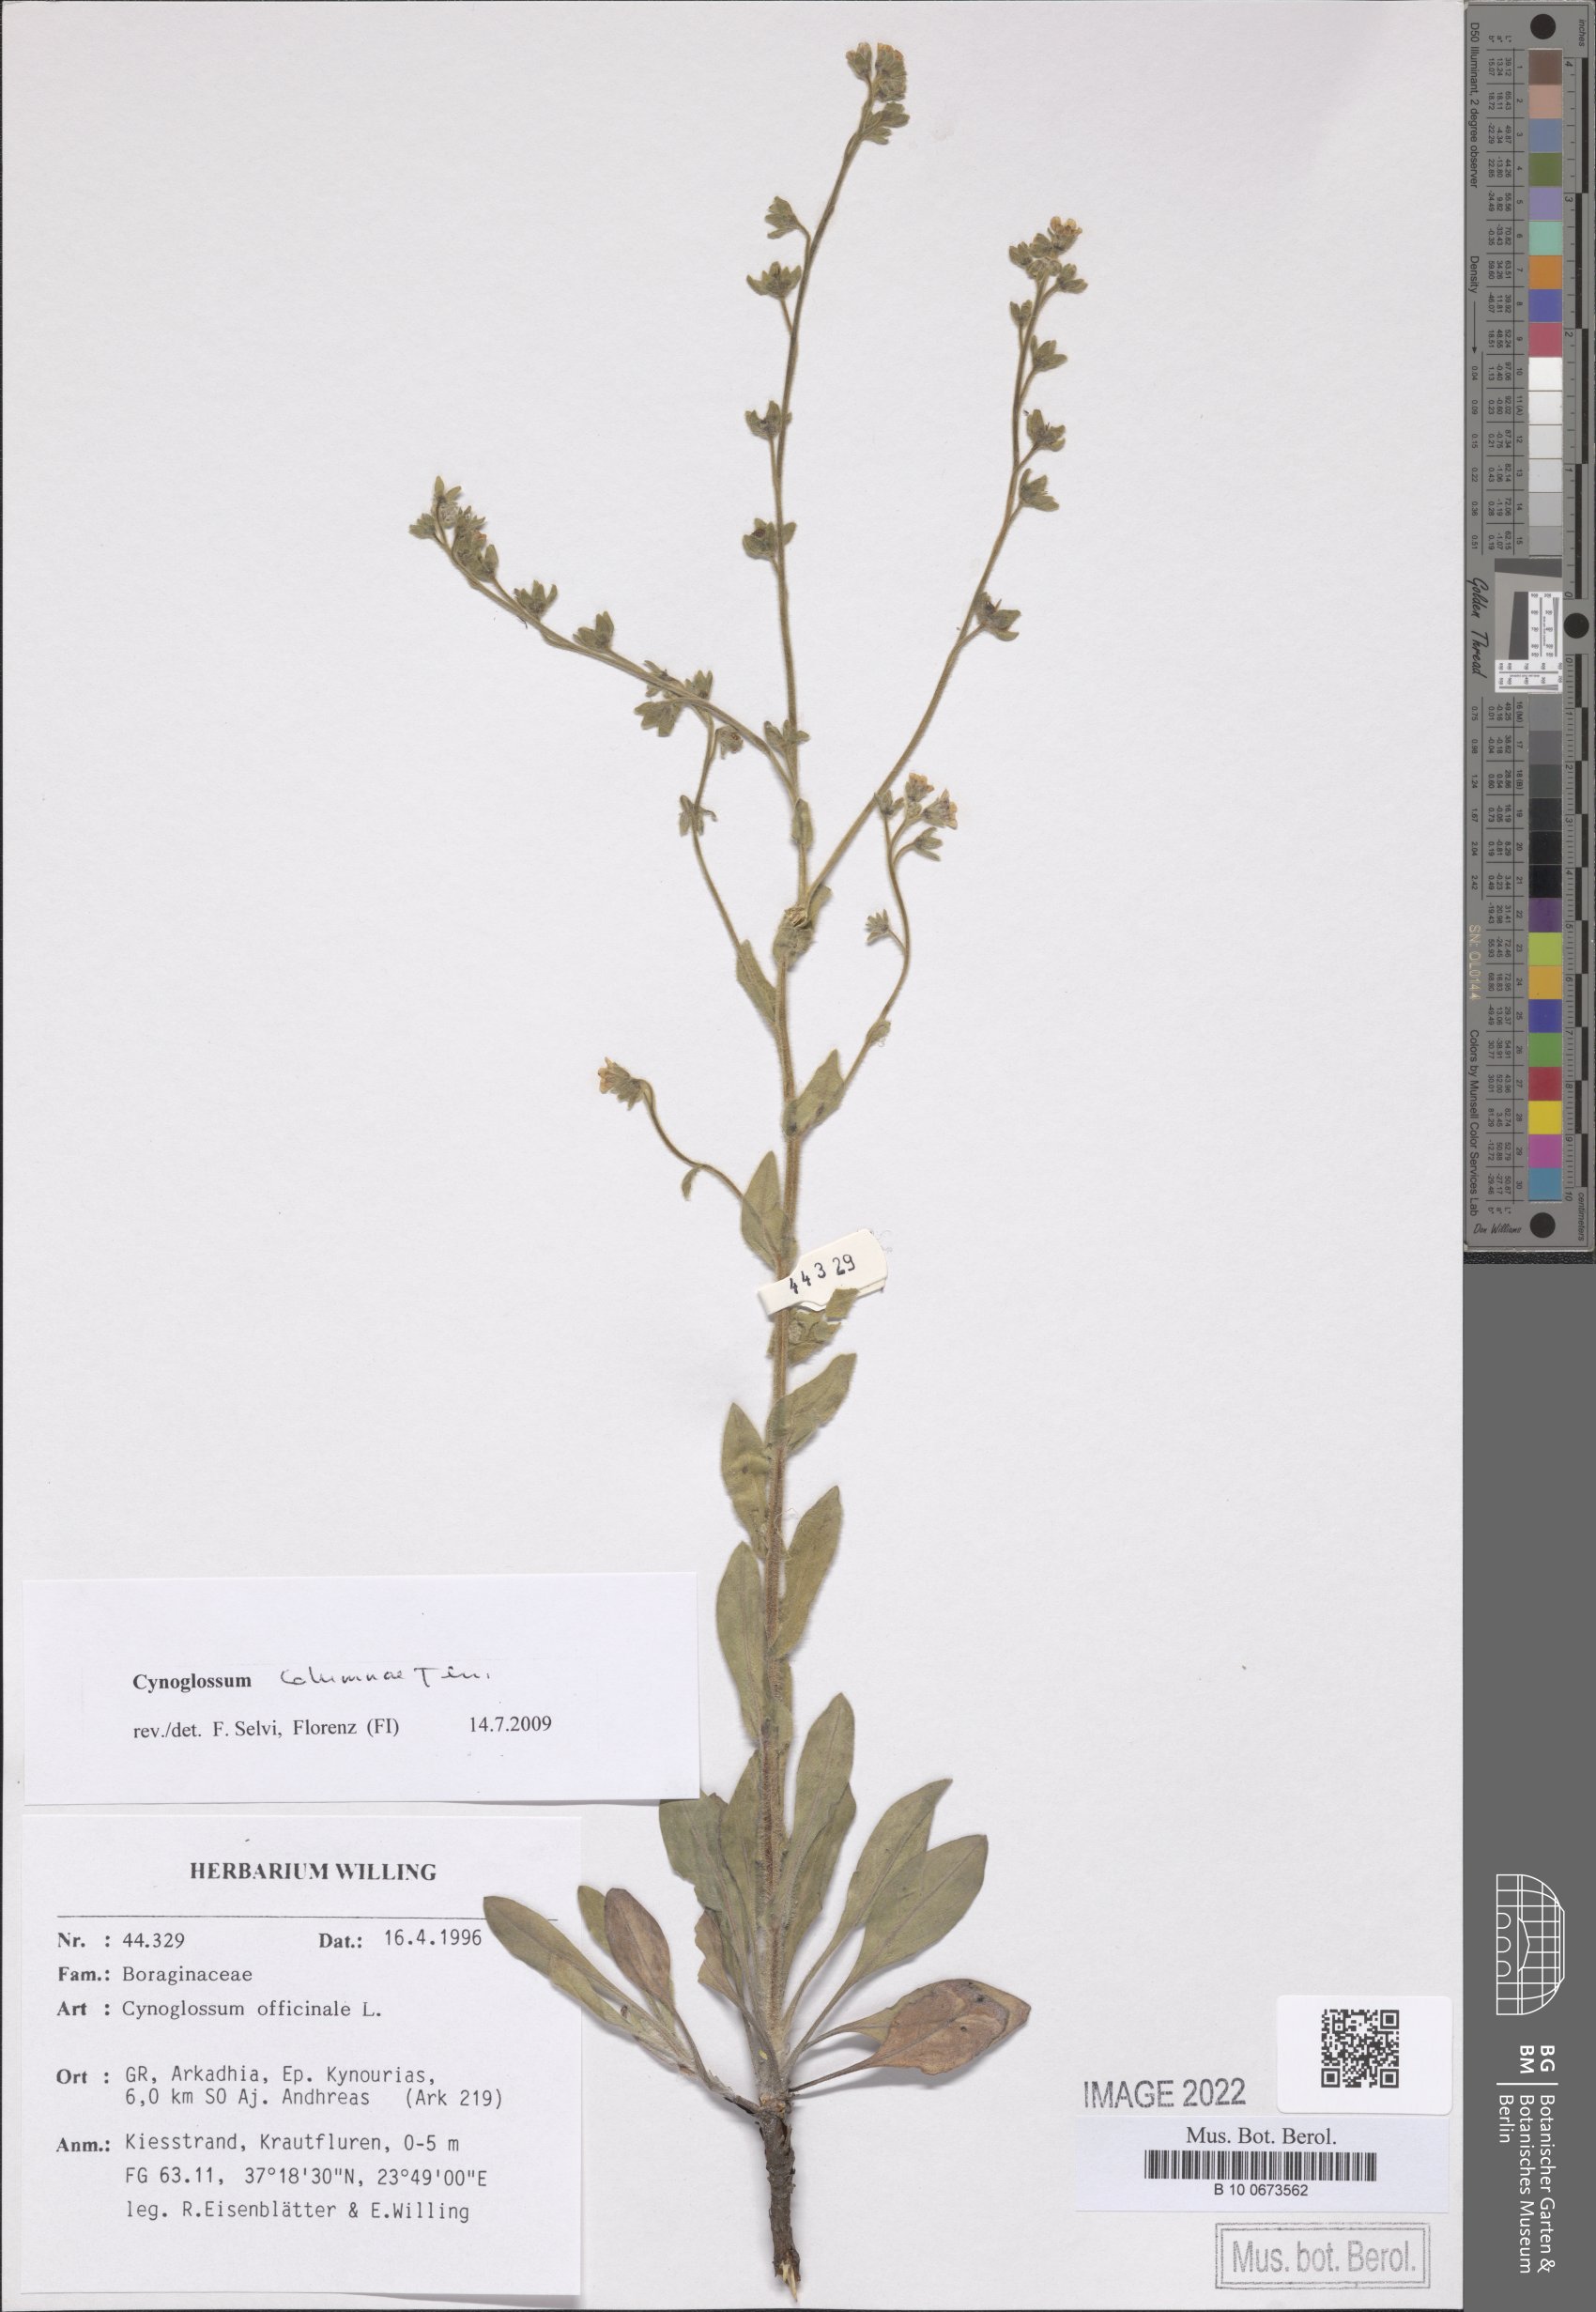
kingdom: Plantae
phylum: Tracheophyta
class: Magnoliopsida
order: Boraginales
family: Boraginaceae
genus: Rindera
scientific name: Rindera columnae
